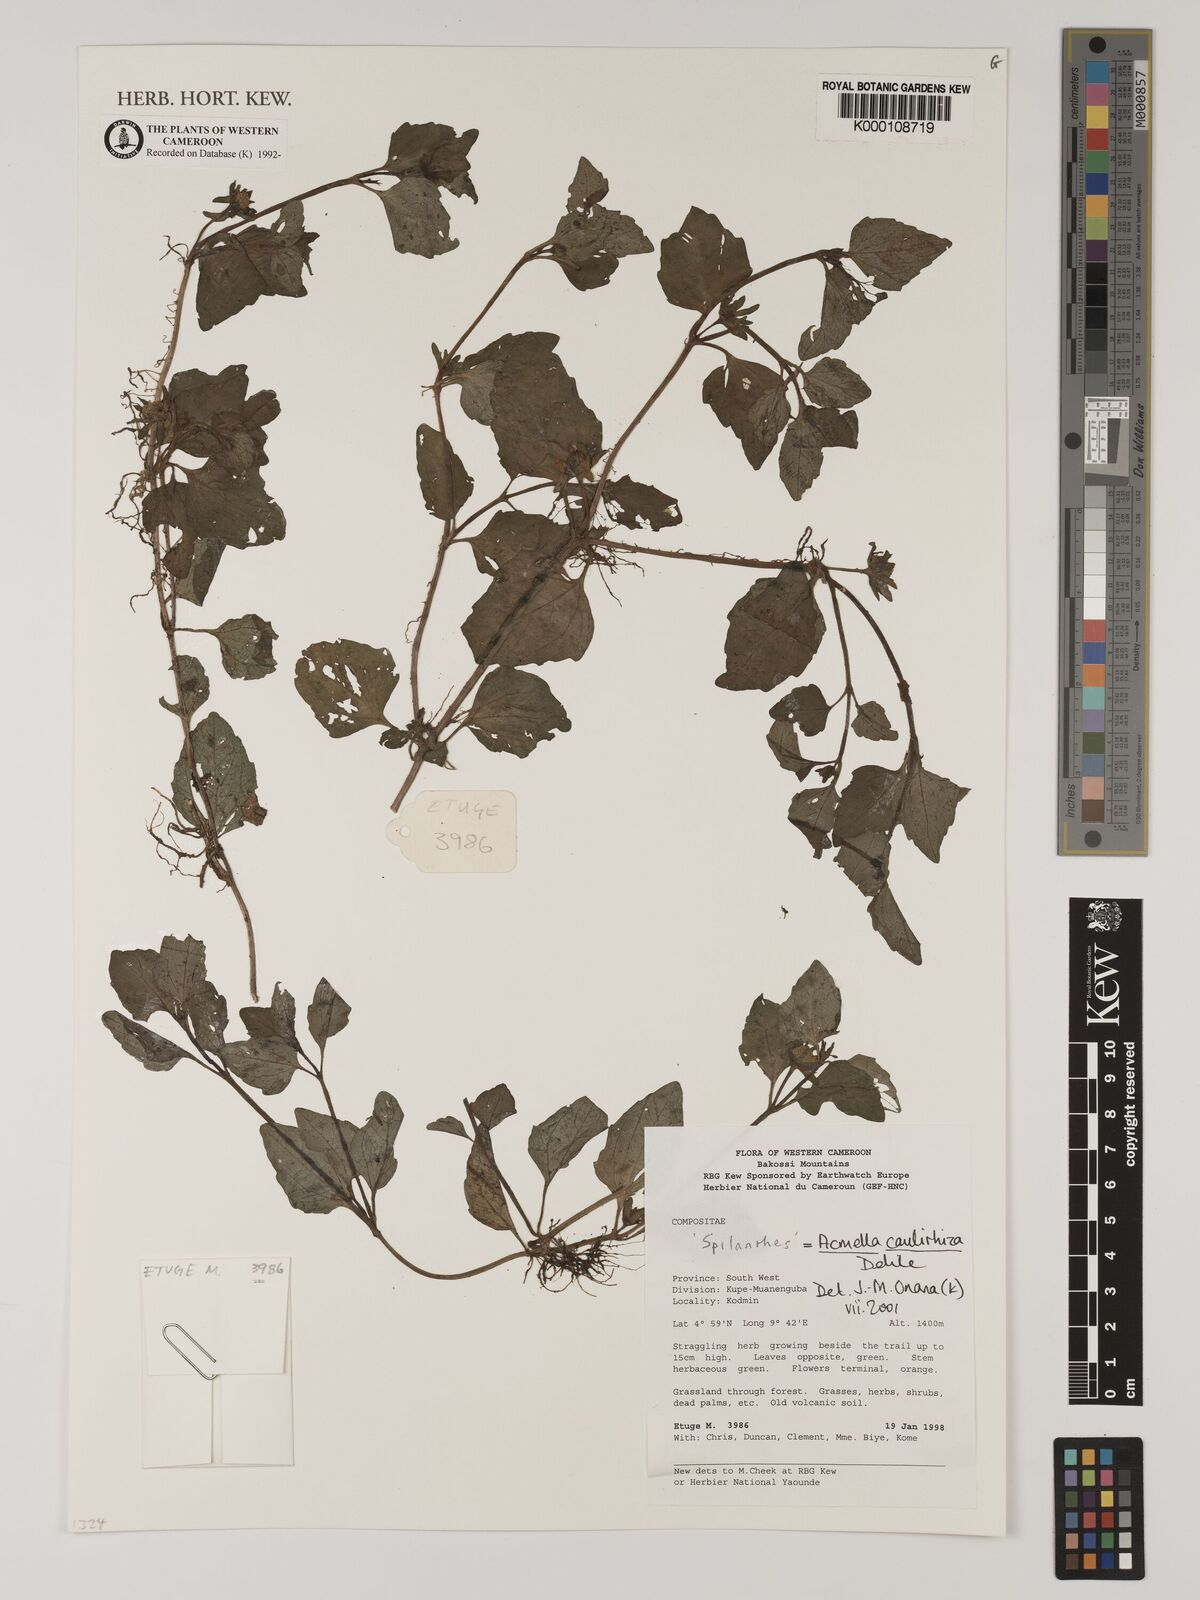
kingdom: Plantae
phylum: Tracheophyta
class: Magnoliopsida
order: Asterales
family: Asteraceae
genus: Acmella
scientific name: Acmella caulirhiza
